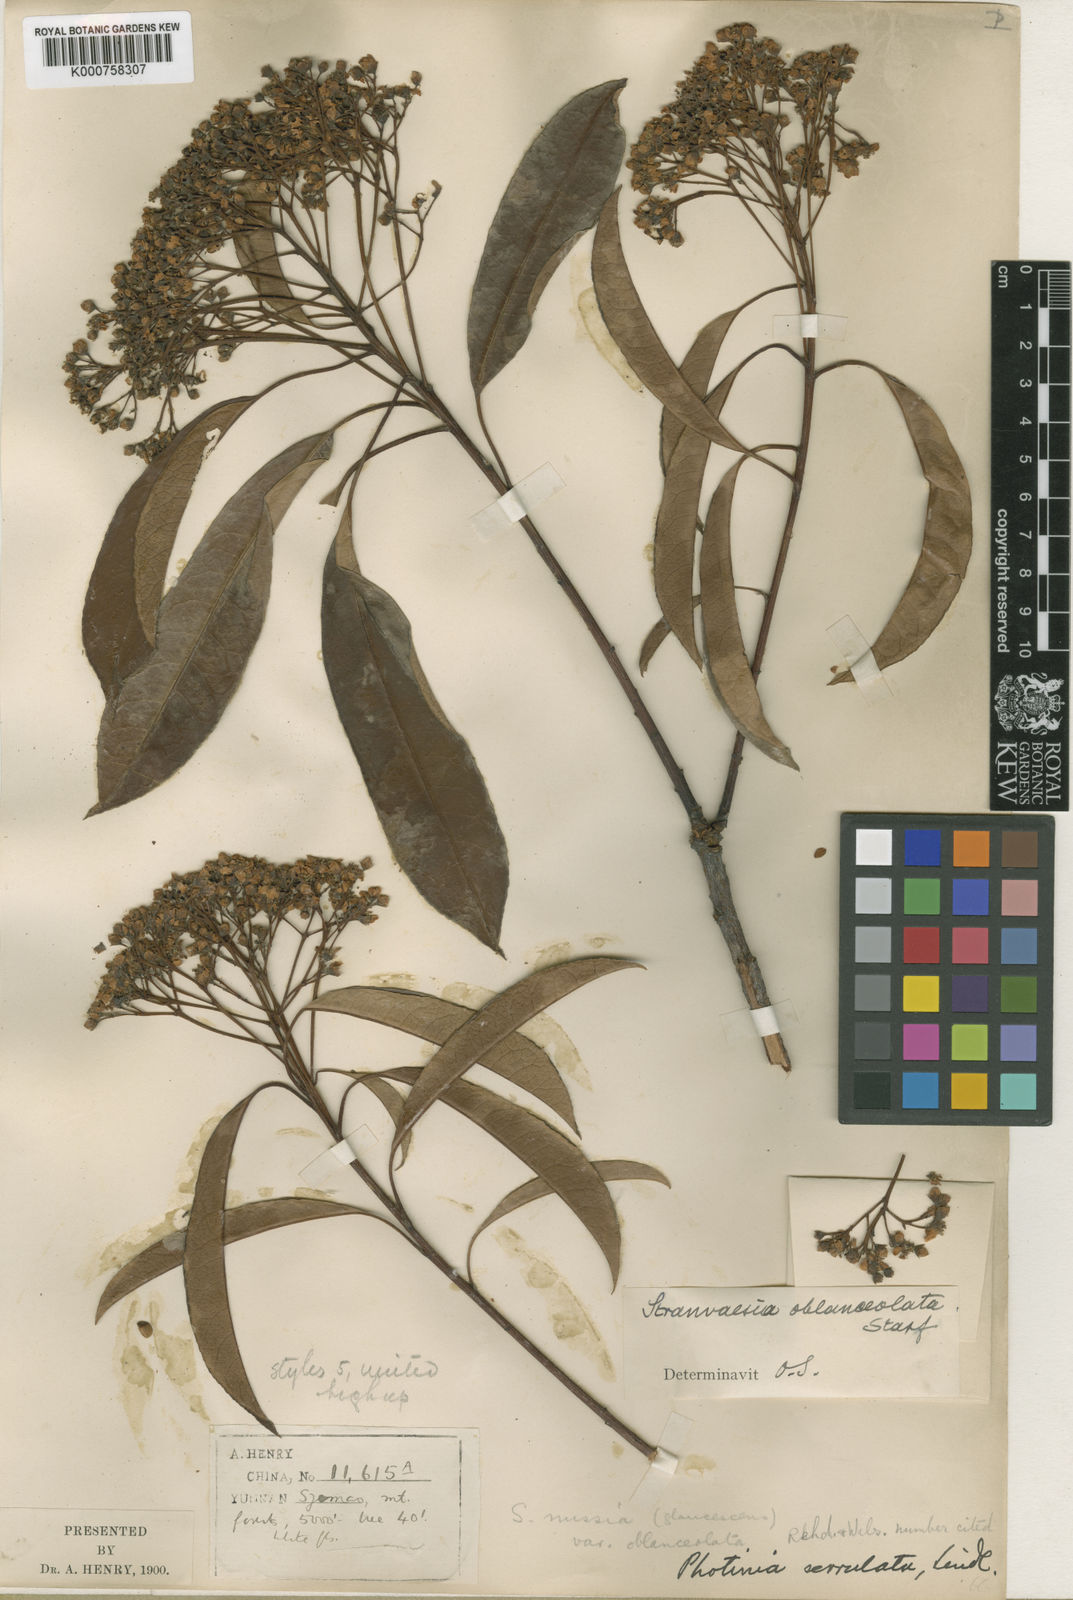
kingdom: Plantae
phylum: Tracheophyta
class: Magnoliopsida
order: Rosales
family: Rosaceae
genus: Photinia
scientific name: Photinia
